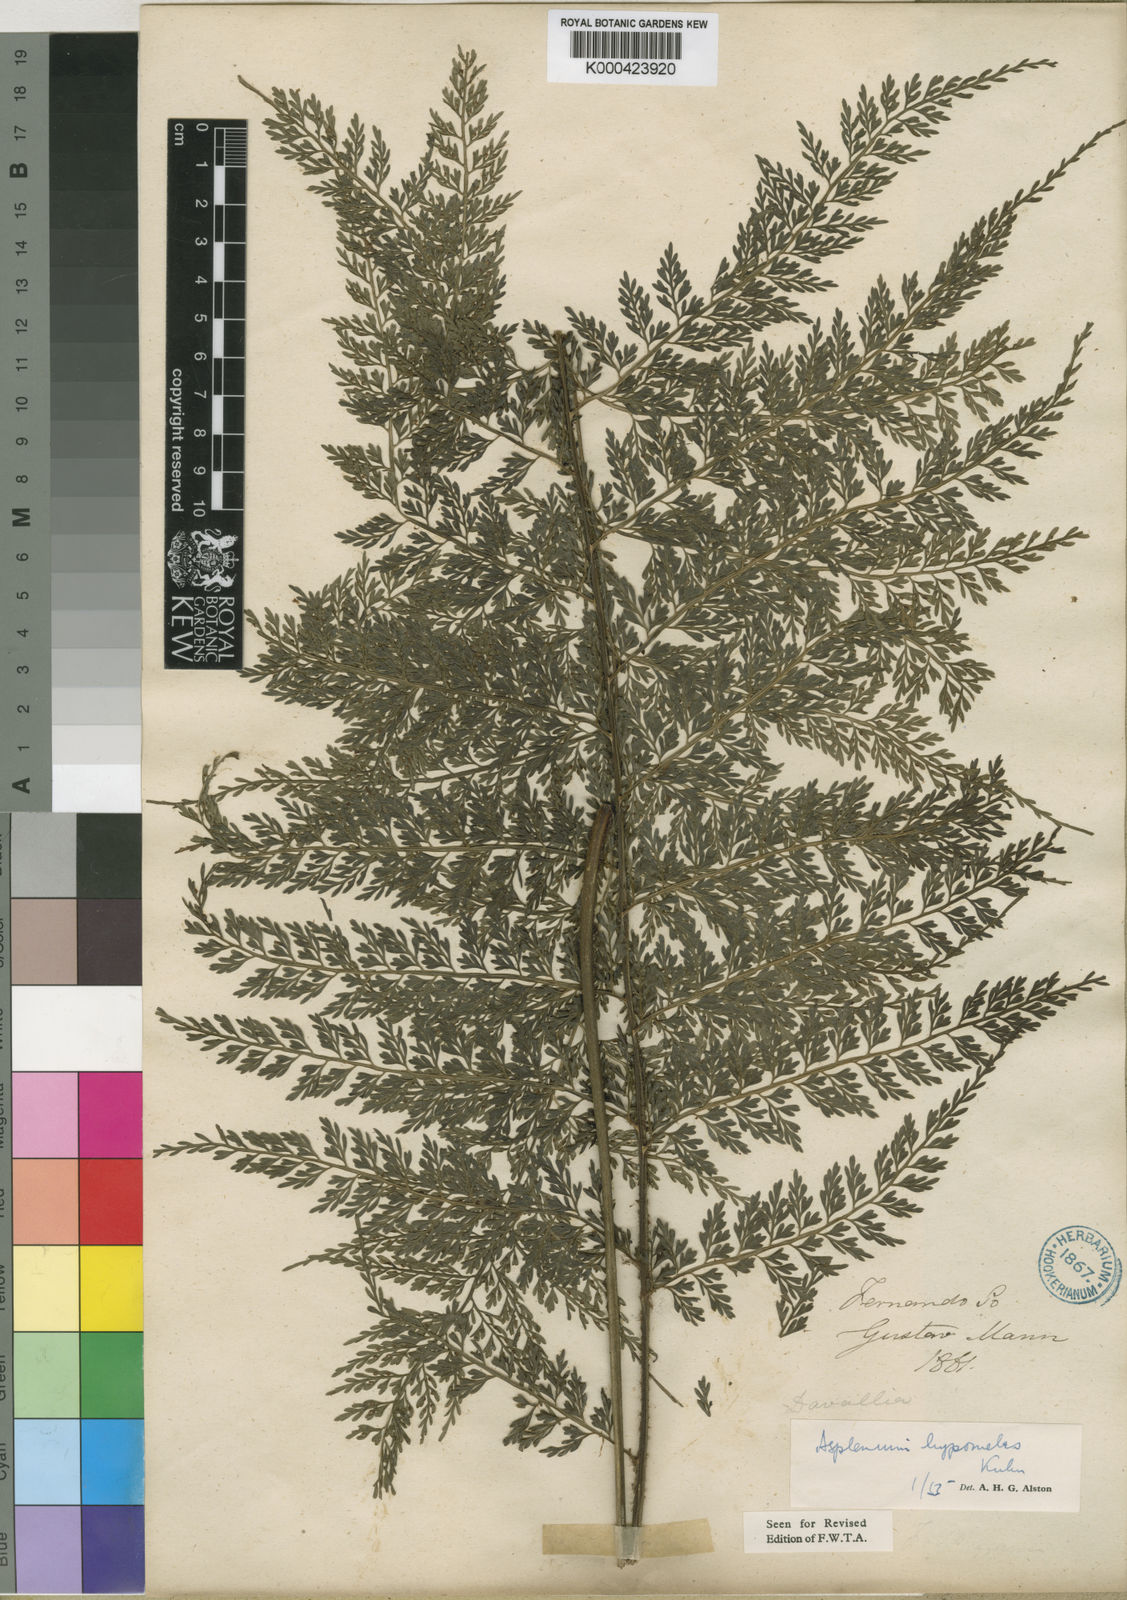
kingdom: Plantae
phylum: Tracheophyta
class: Polypodiopsida
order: Polypodiales
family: Aspleniaceae
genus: Asplenium
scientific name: Asplenium hypomelas
